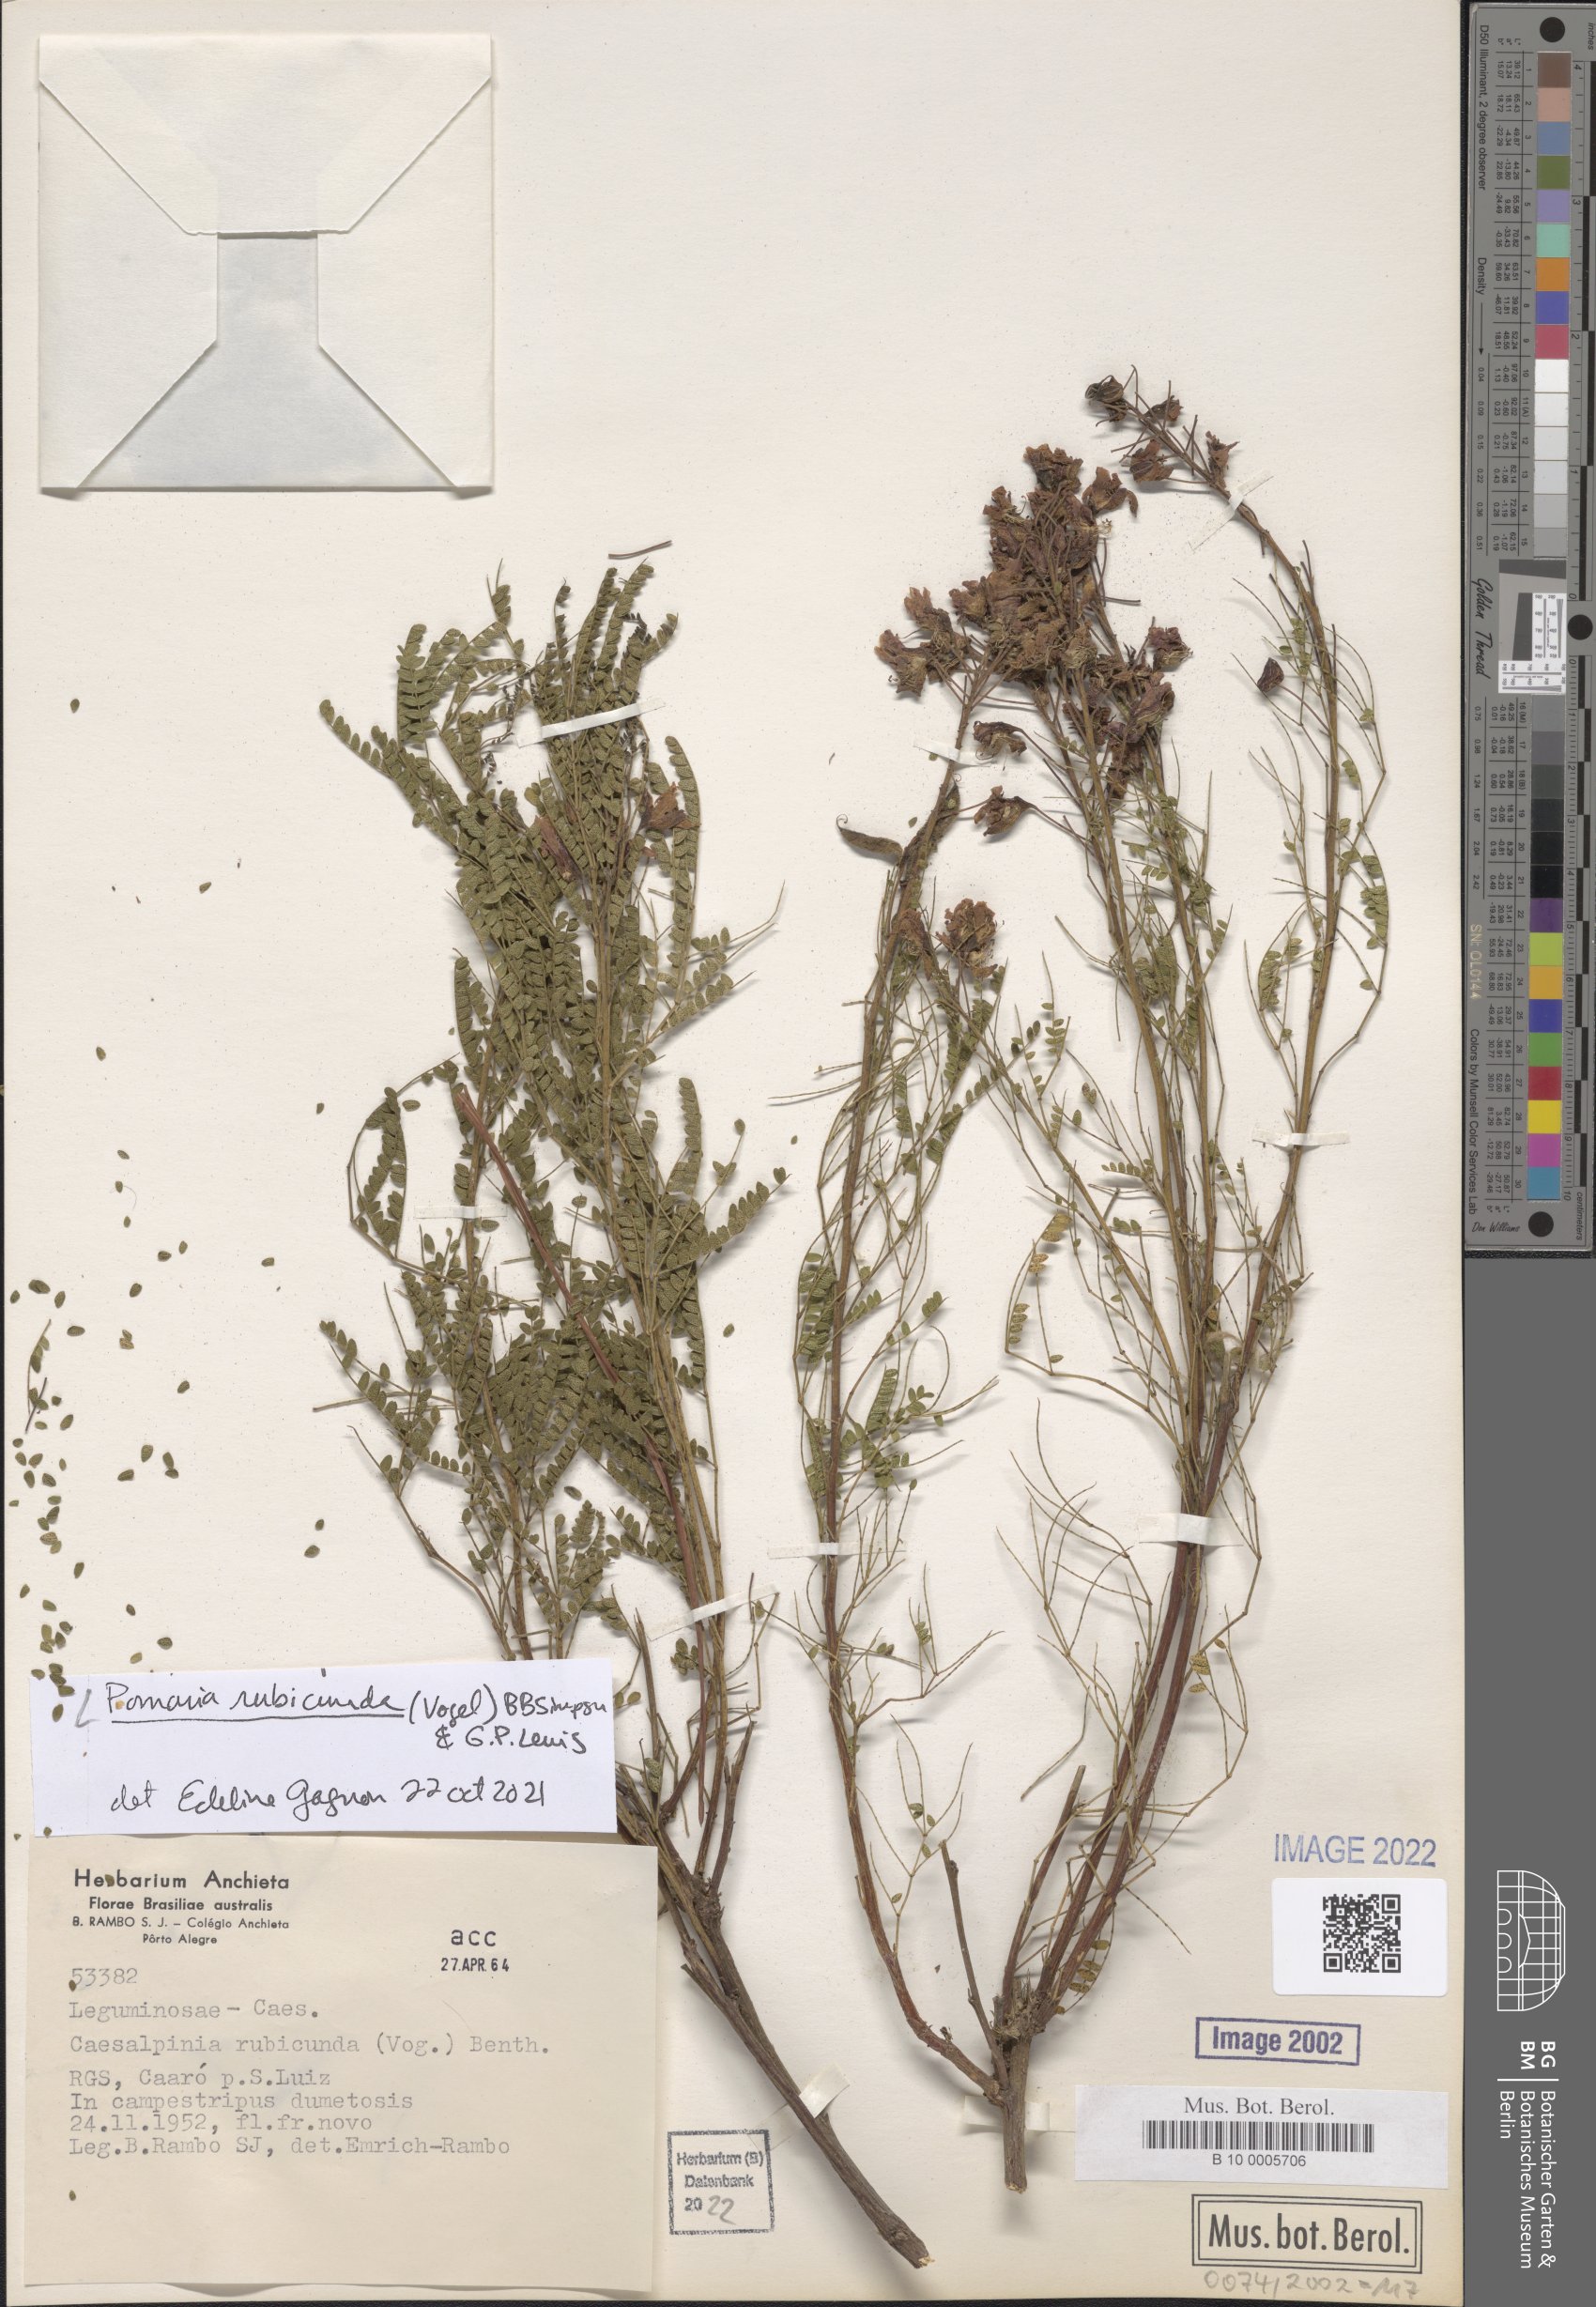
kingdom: Plantae
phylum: Tracheophyta
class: Magnoliopsida
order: Fabales
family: Fabaceae
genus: Pomaria
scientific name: Pomaria rubicunda
